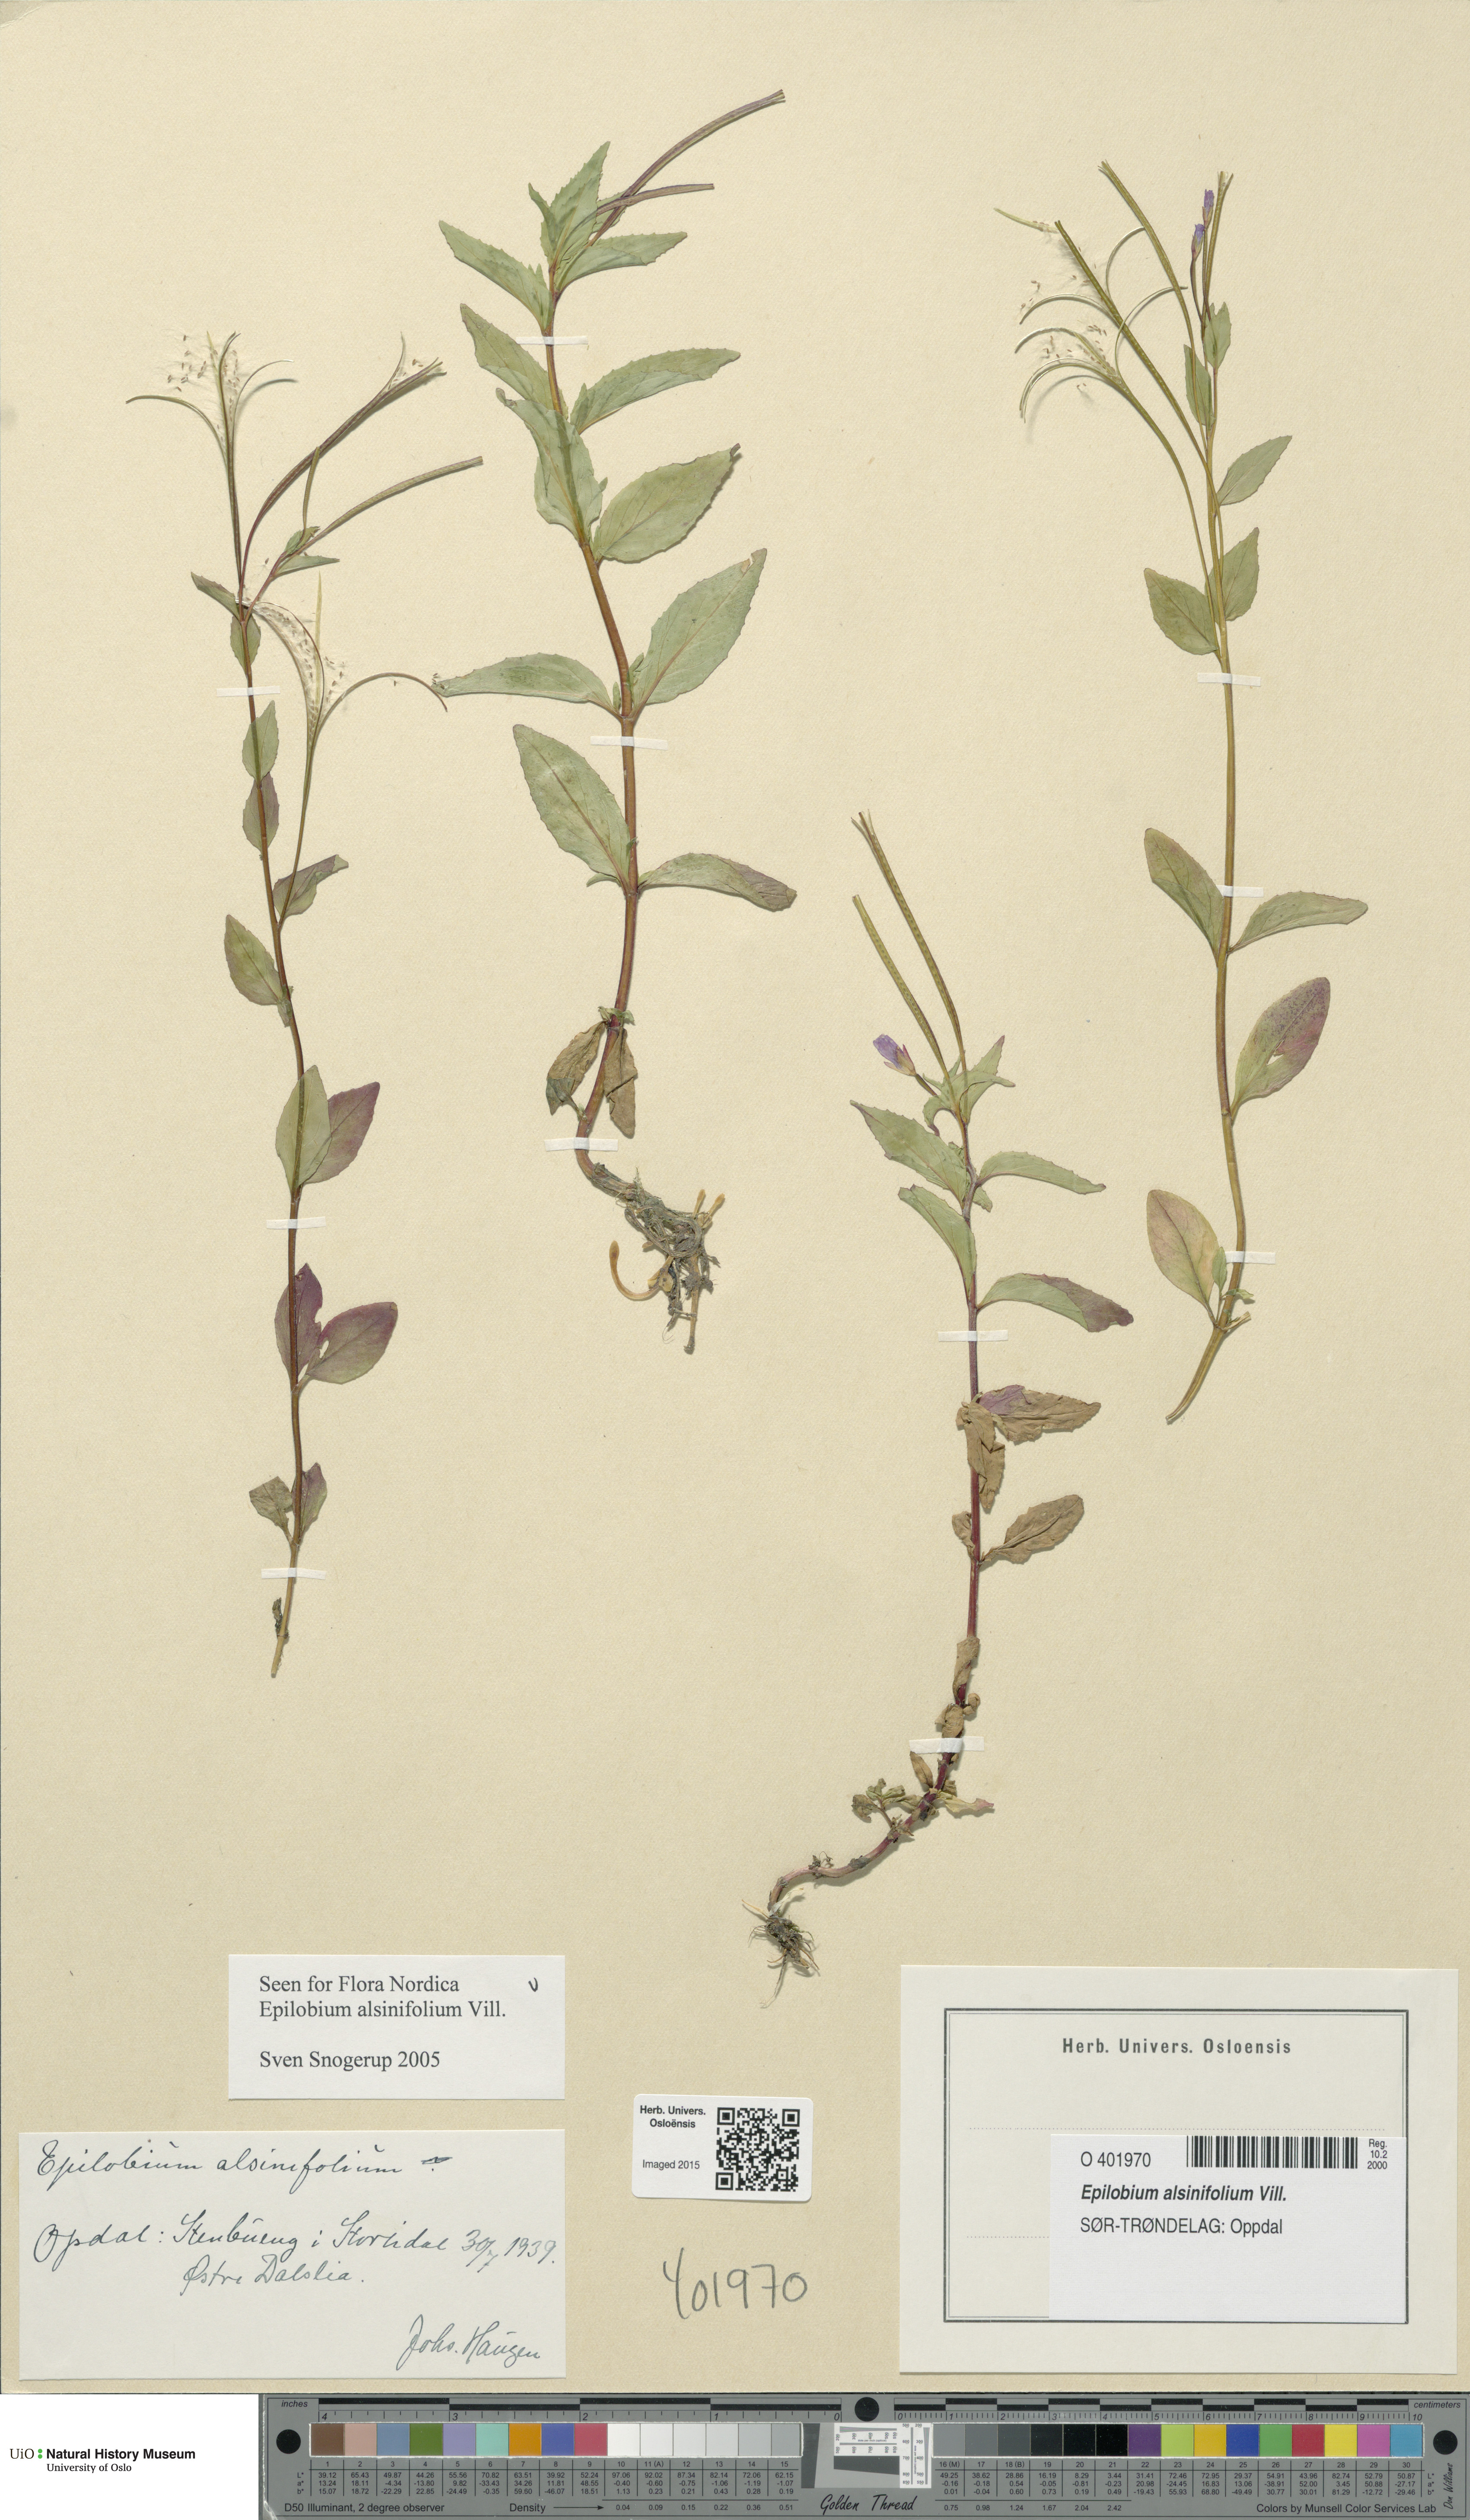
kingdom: Plantae
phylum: Tracheophyta
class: Magnoliopsida
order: Myrtales
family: Onagraceae
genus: Epilobium
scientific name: Epilobium alsinifolium
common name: Chickweed willowherb
